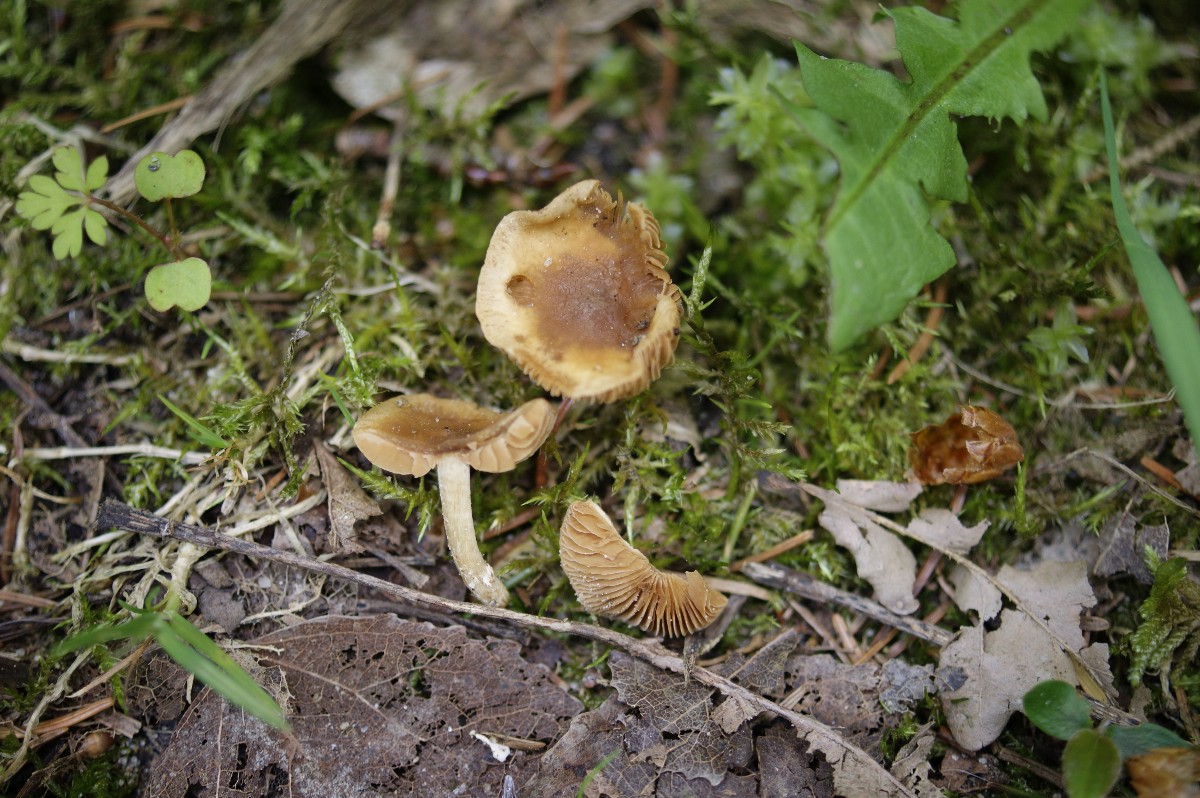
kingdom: Fungi
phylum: Basidiomycota
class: Agaricomycetes
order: Agaricales
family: Bolbitiaceae
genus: Conocybe
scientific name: Conocybe aporos
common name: tidlig dansehat
